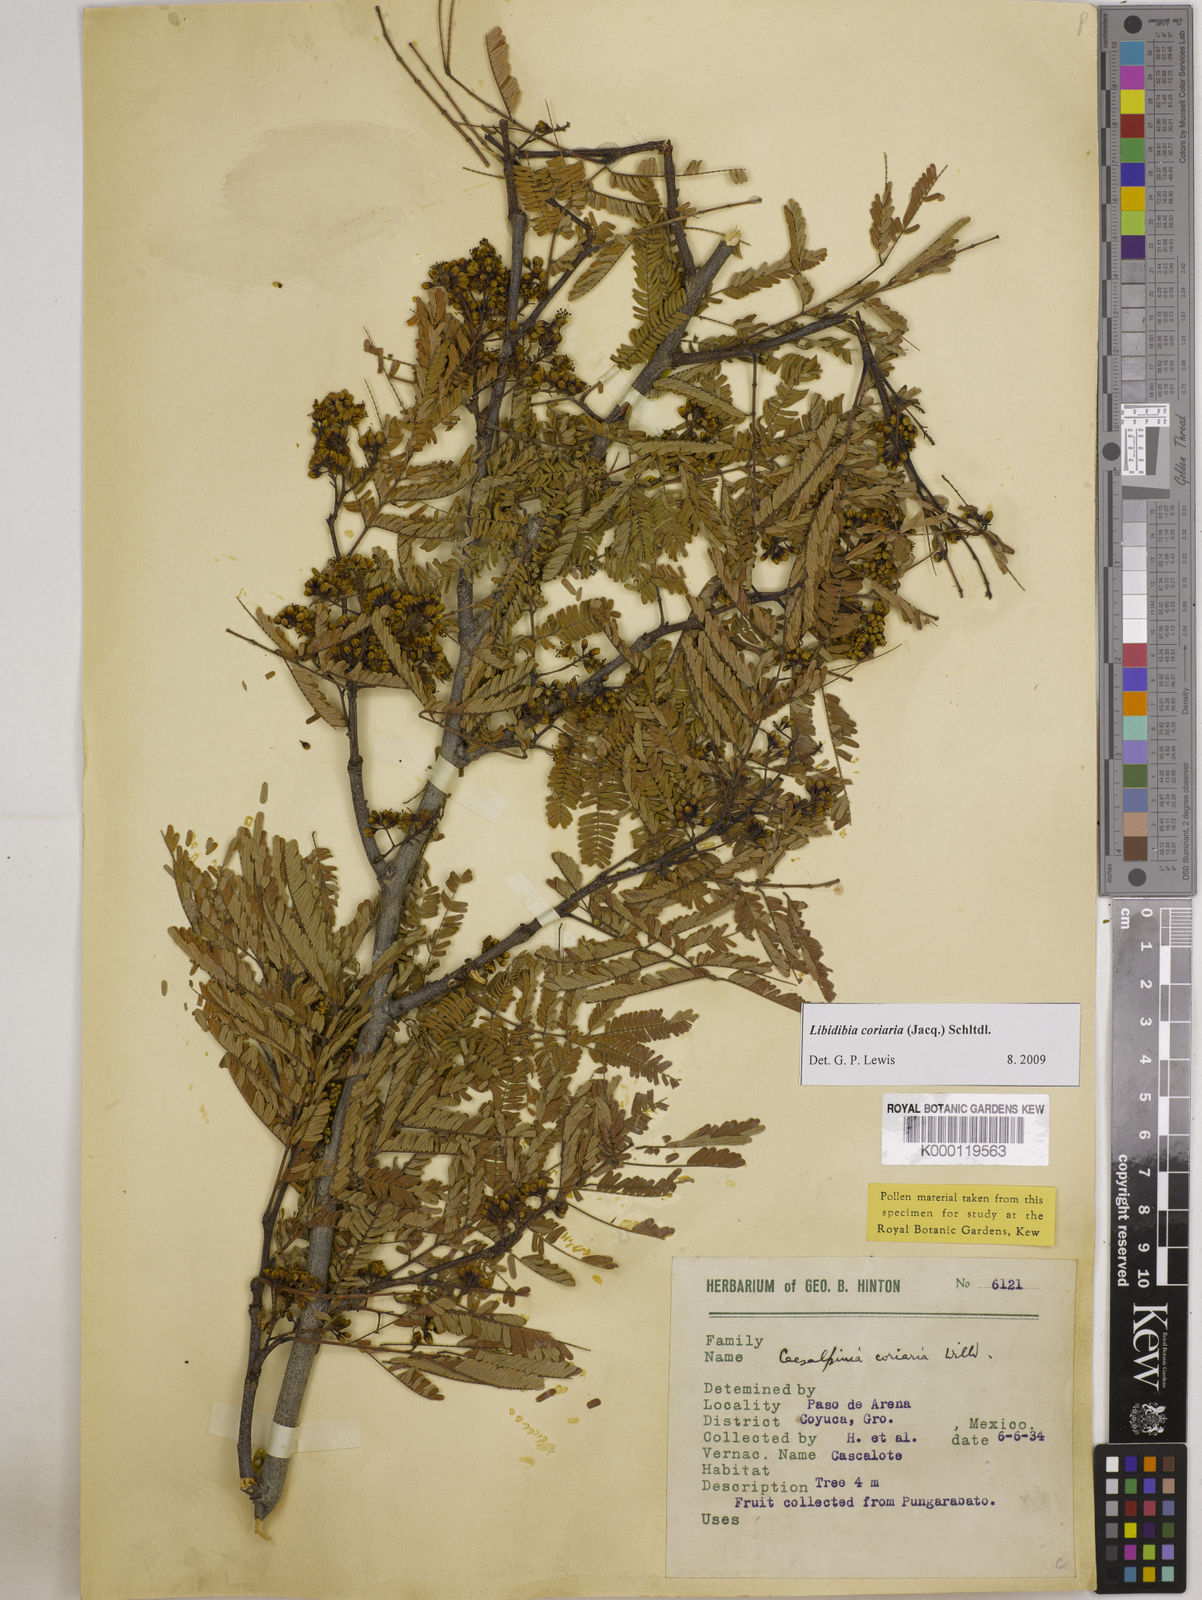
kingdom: Plantae
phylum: Tracheophyta
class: Magnoliopsida
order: Fabales
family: Fabaceae
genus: Libidibia
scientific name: Libidibia coriaria
